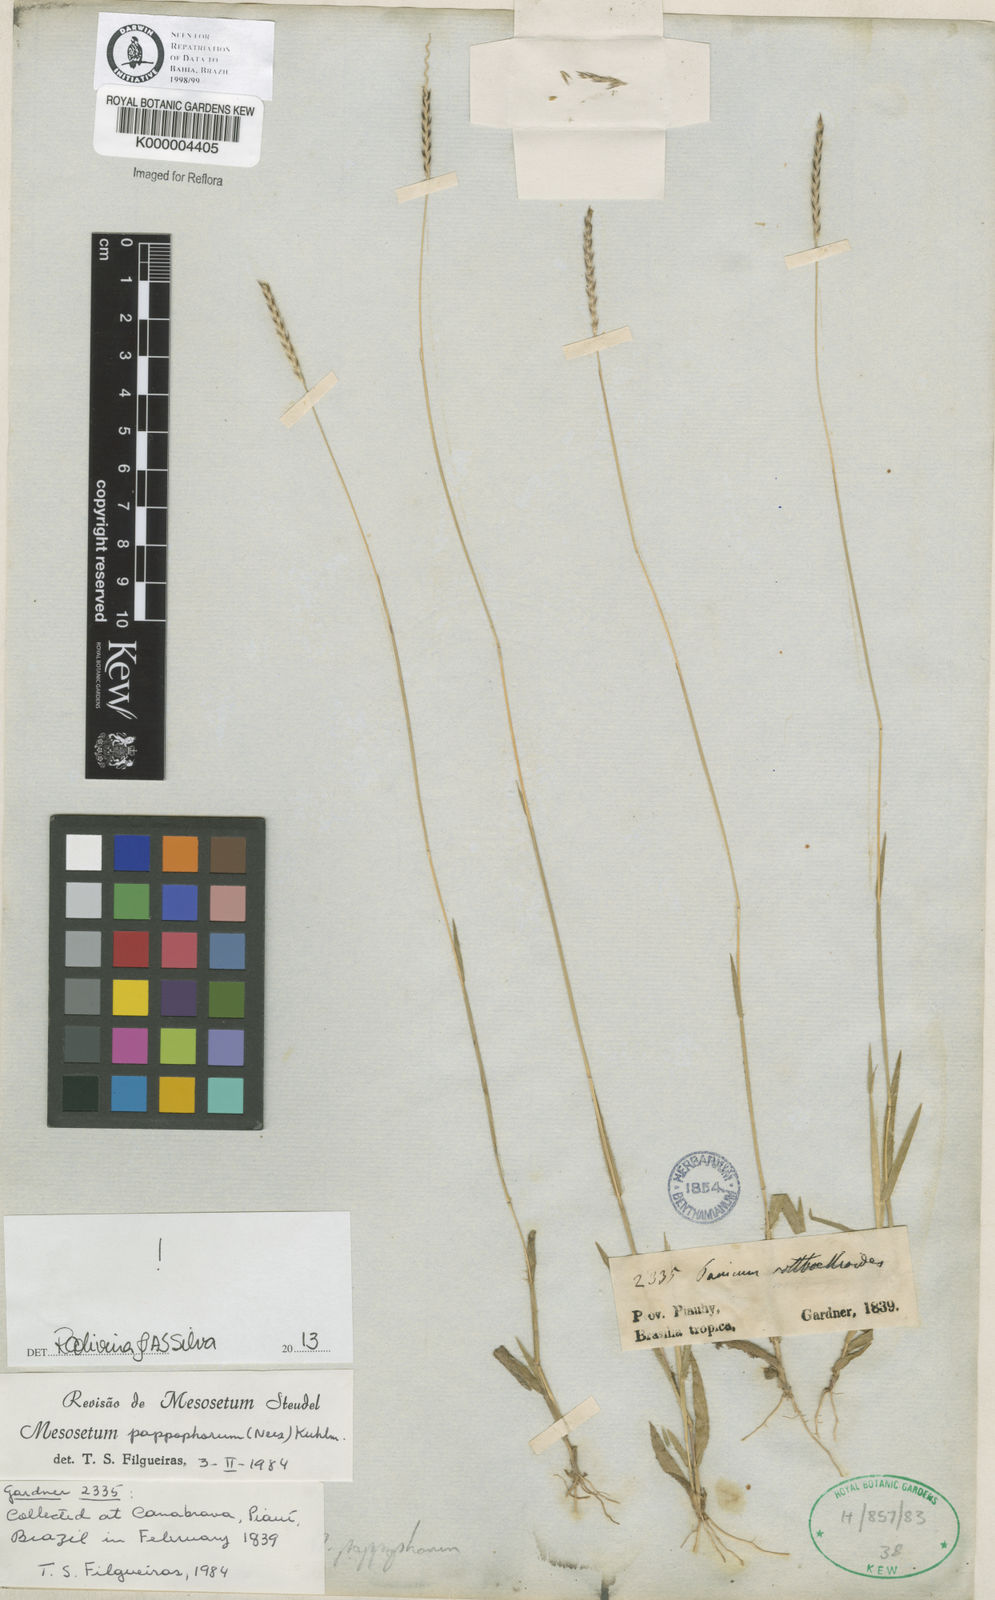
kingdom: Plantae
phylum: Tracheophyta
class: Liliopsida
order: Poales
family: Poaceae
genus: Mesosetum
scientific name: Mesosetum pappophorum
